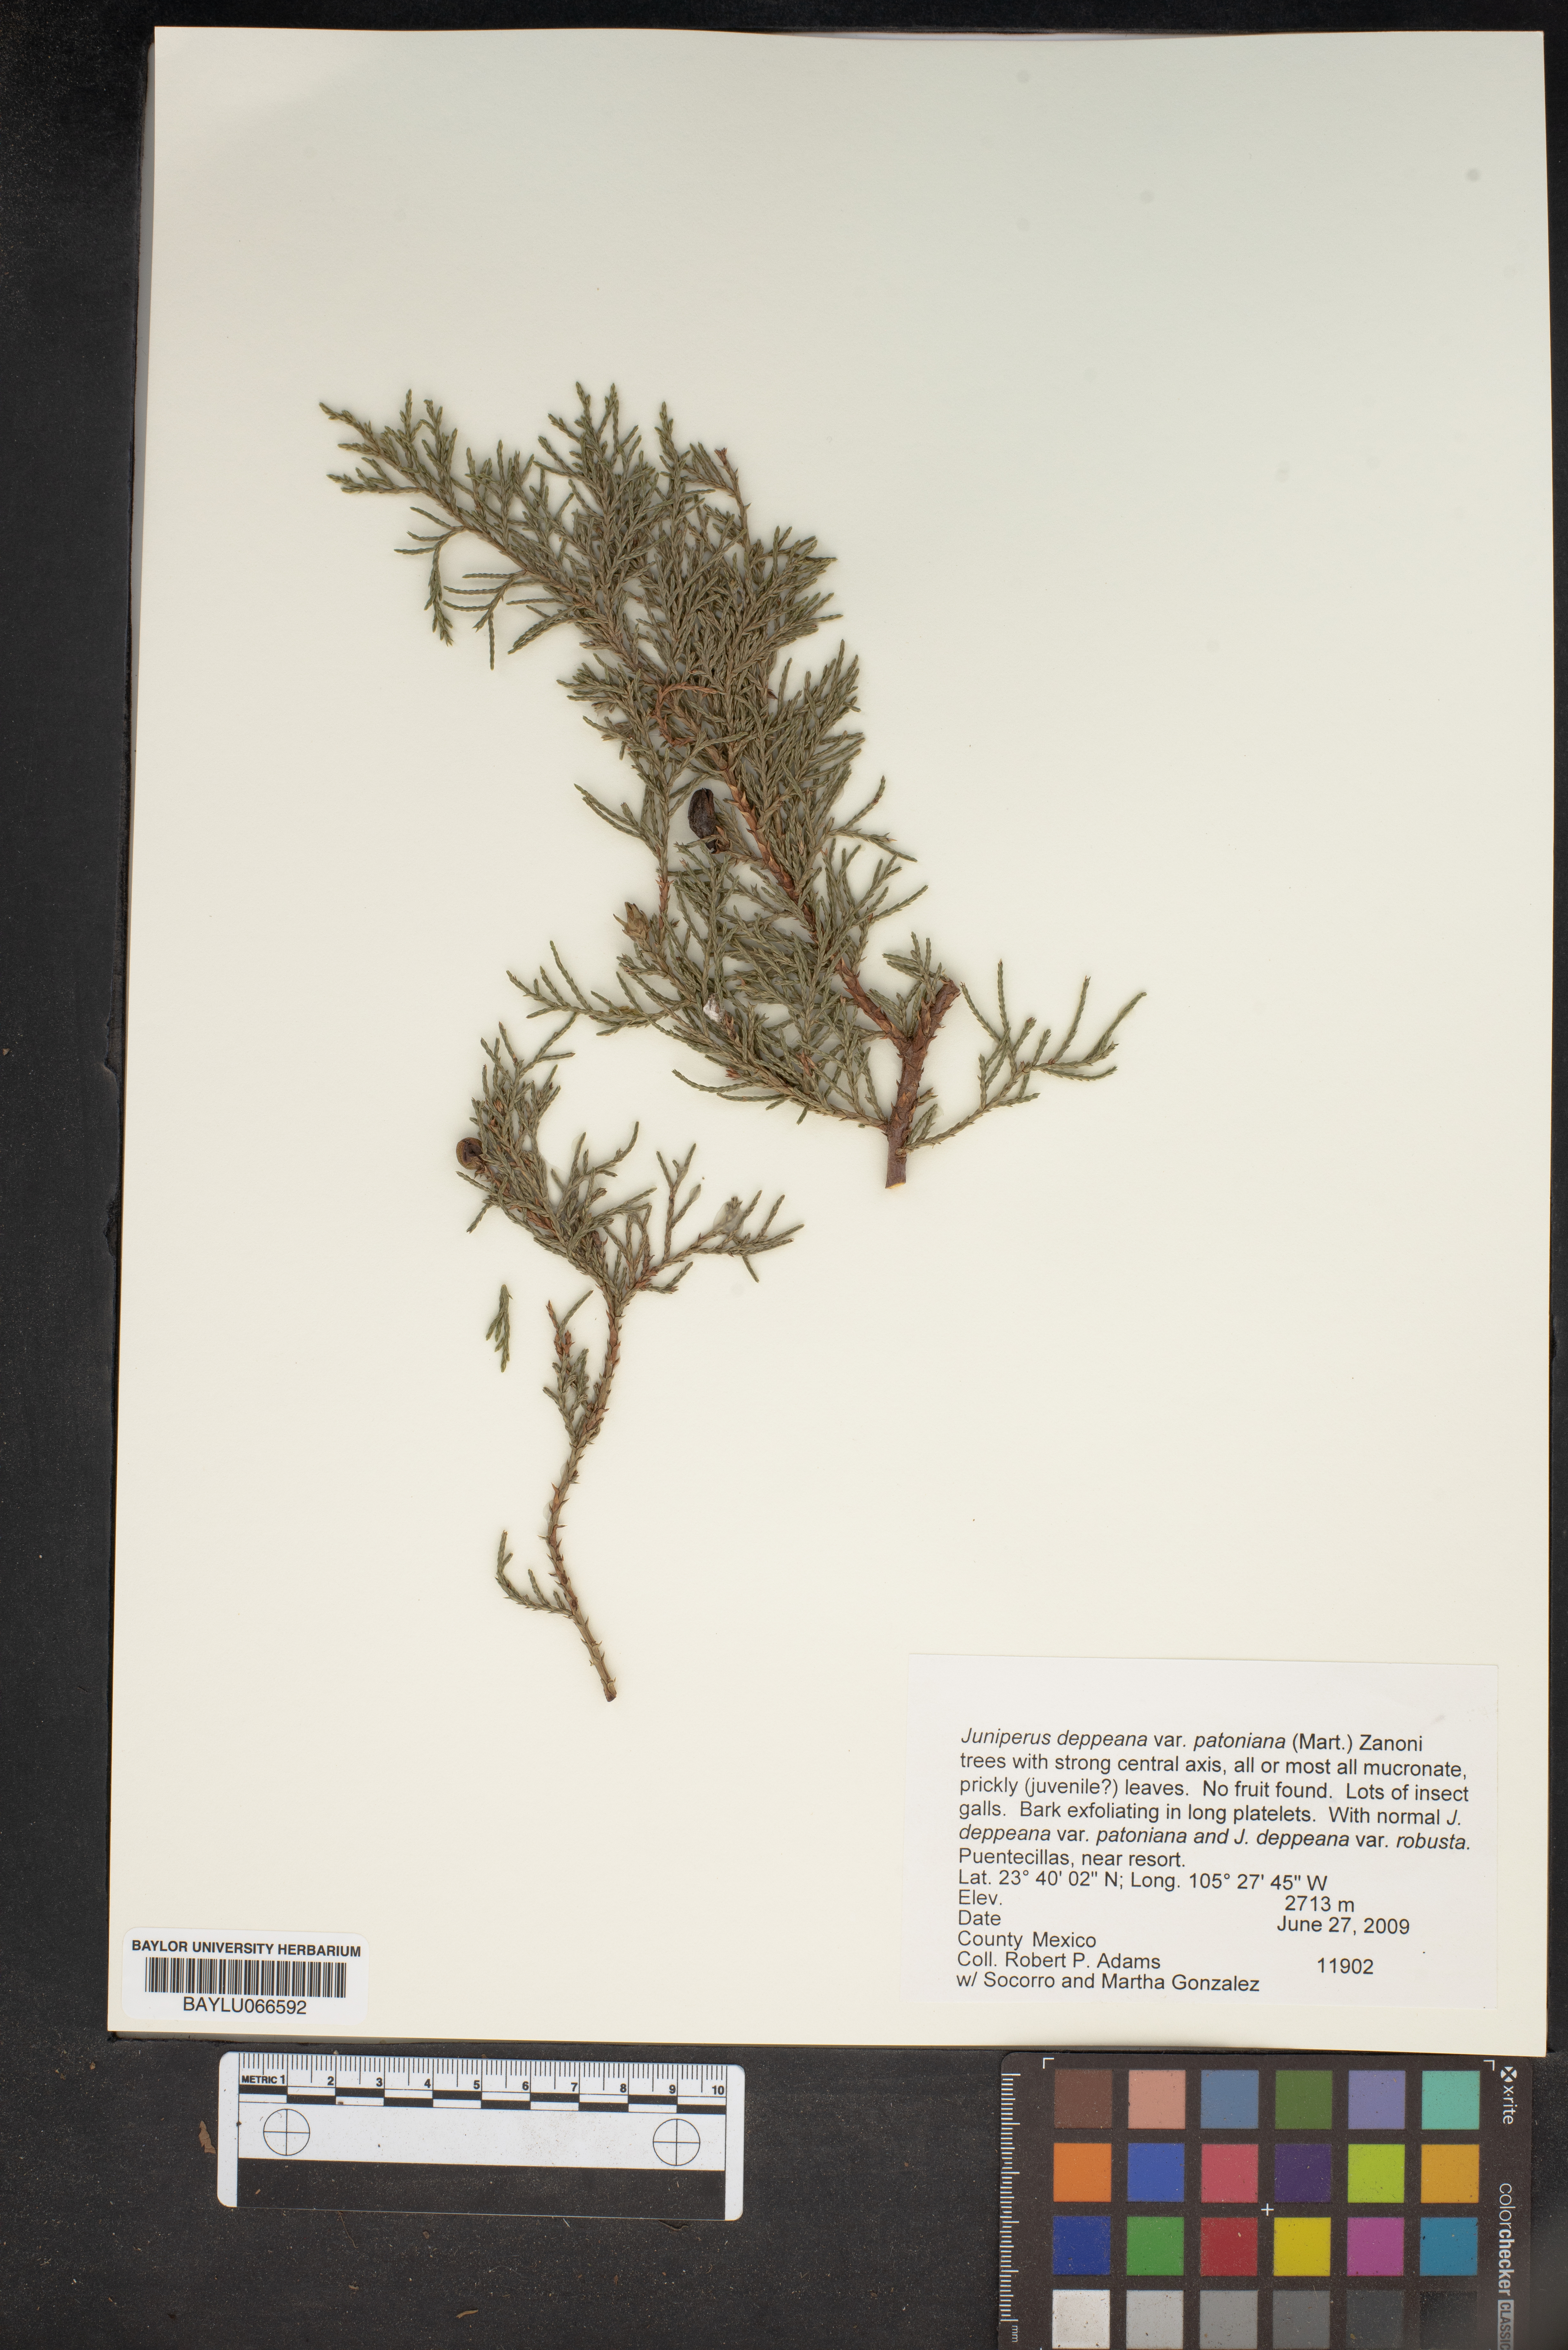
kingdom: Plantae
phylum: Tracheophyta
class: Pinopsida
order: Pinales
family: Cupressaceae
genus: Juniperus
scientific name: Juniperus deppeana
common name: Alligator juniper
